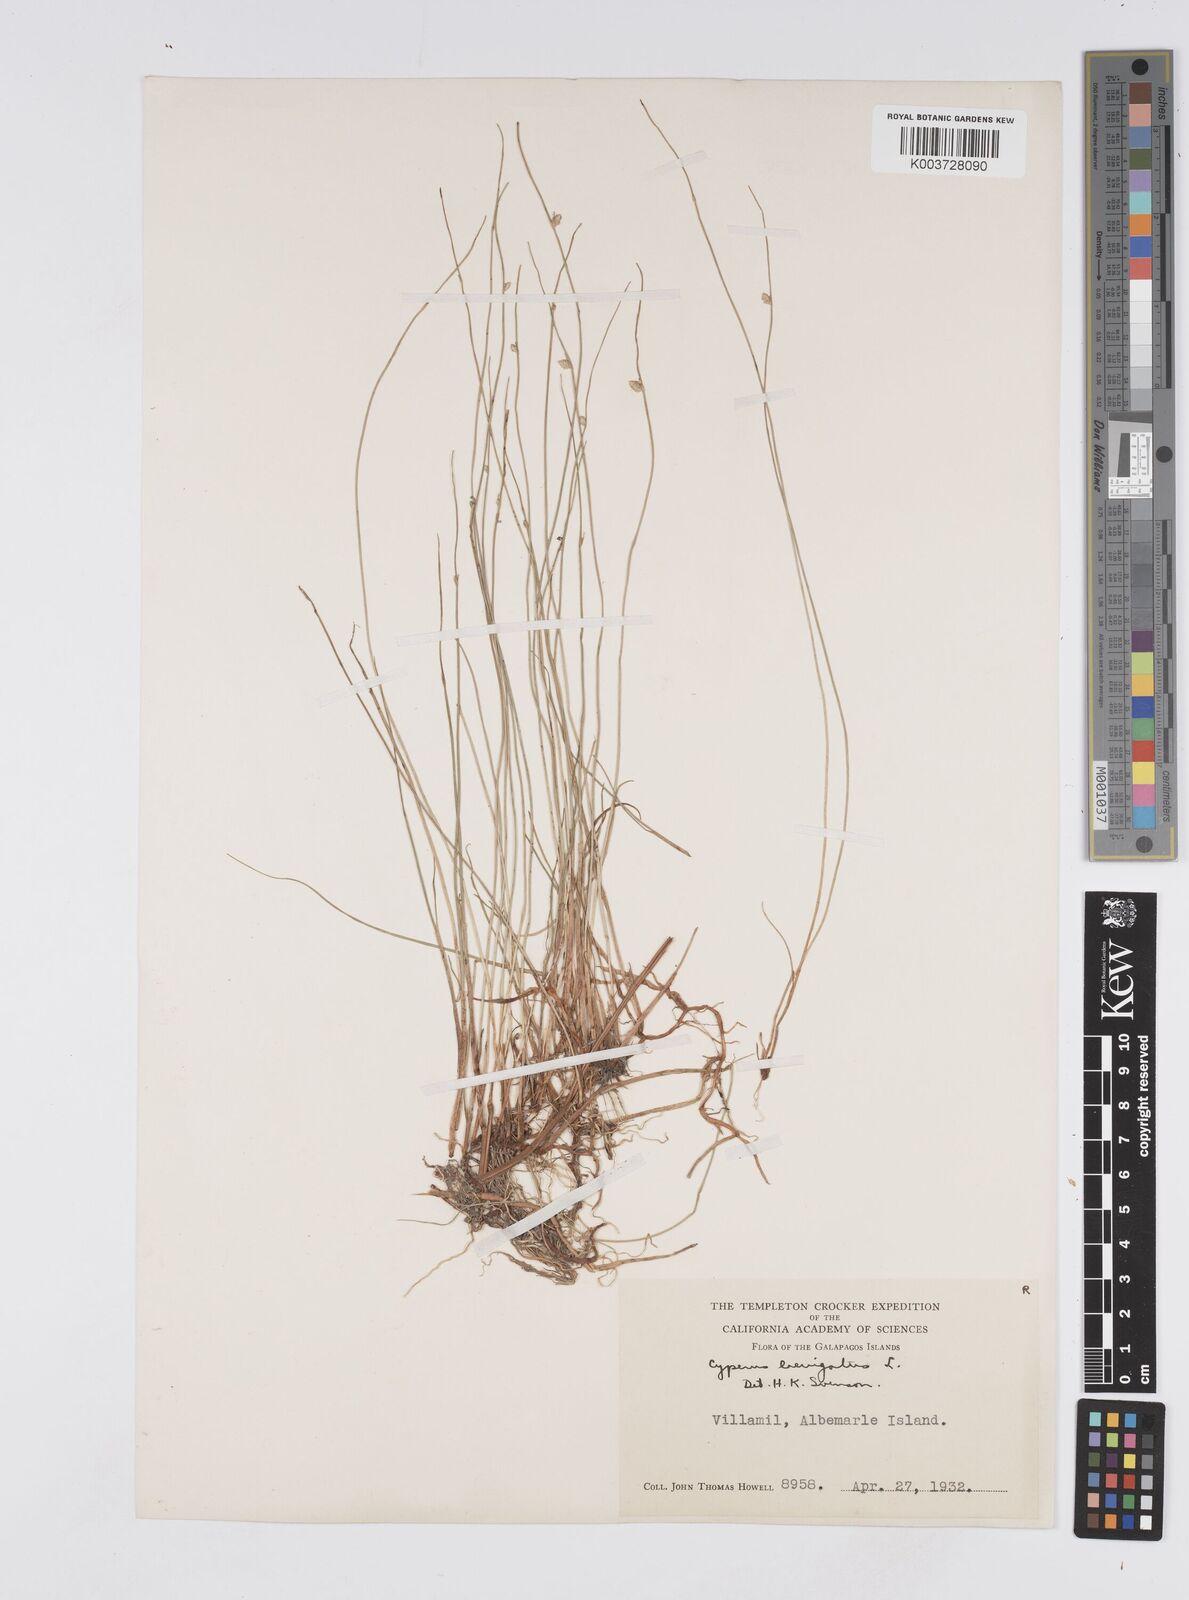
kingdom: Plantae
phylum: Tracheophyta
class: Liliopsida
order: Poales
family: Cyperaceae
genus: Cyperus
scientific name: Cyperus laevigatus
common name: Smooth flat sedge
